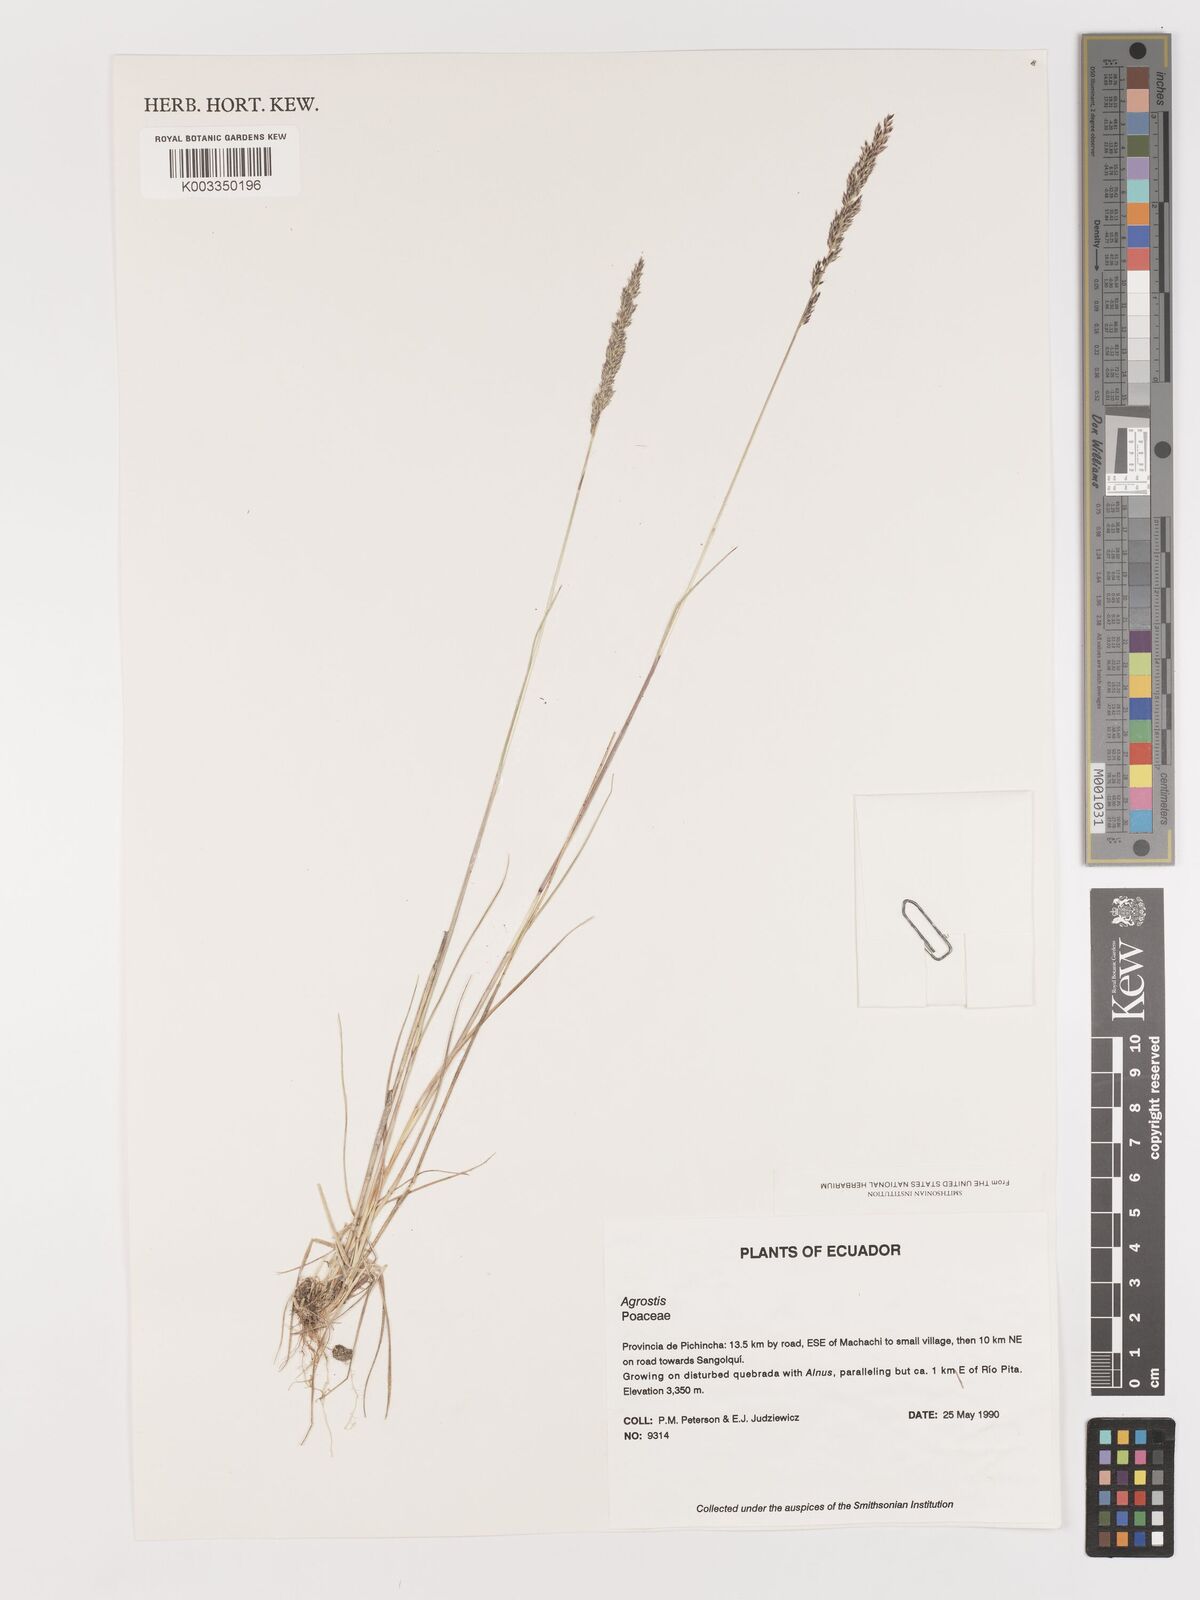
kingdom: Plantae
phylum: Tracheophyta
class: Liliopsida
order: Poales
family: Poaceae
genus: Agrostis
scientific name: Agrostis
